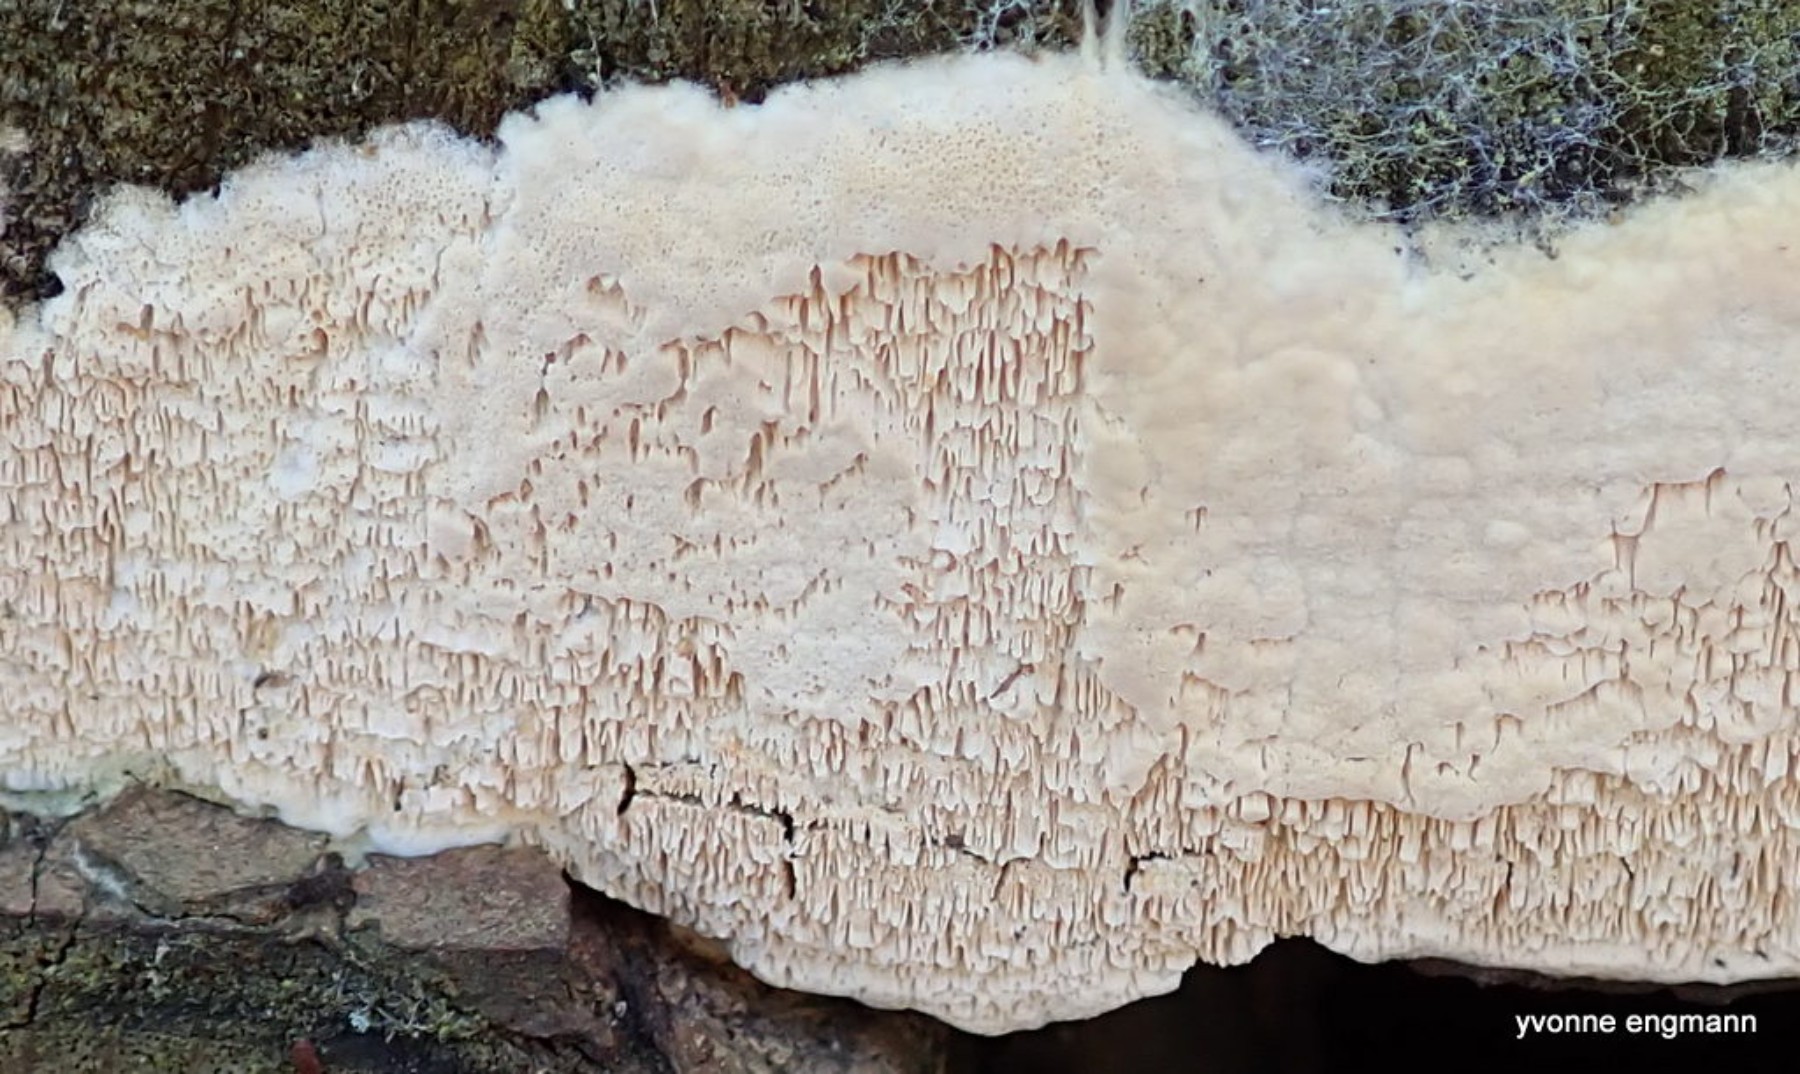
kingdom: Fungi
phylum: Basidiomycota
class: Agaricomycetes
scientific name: Agaricomycetes
